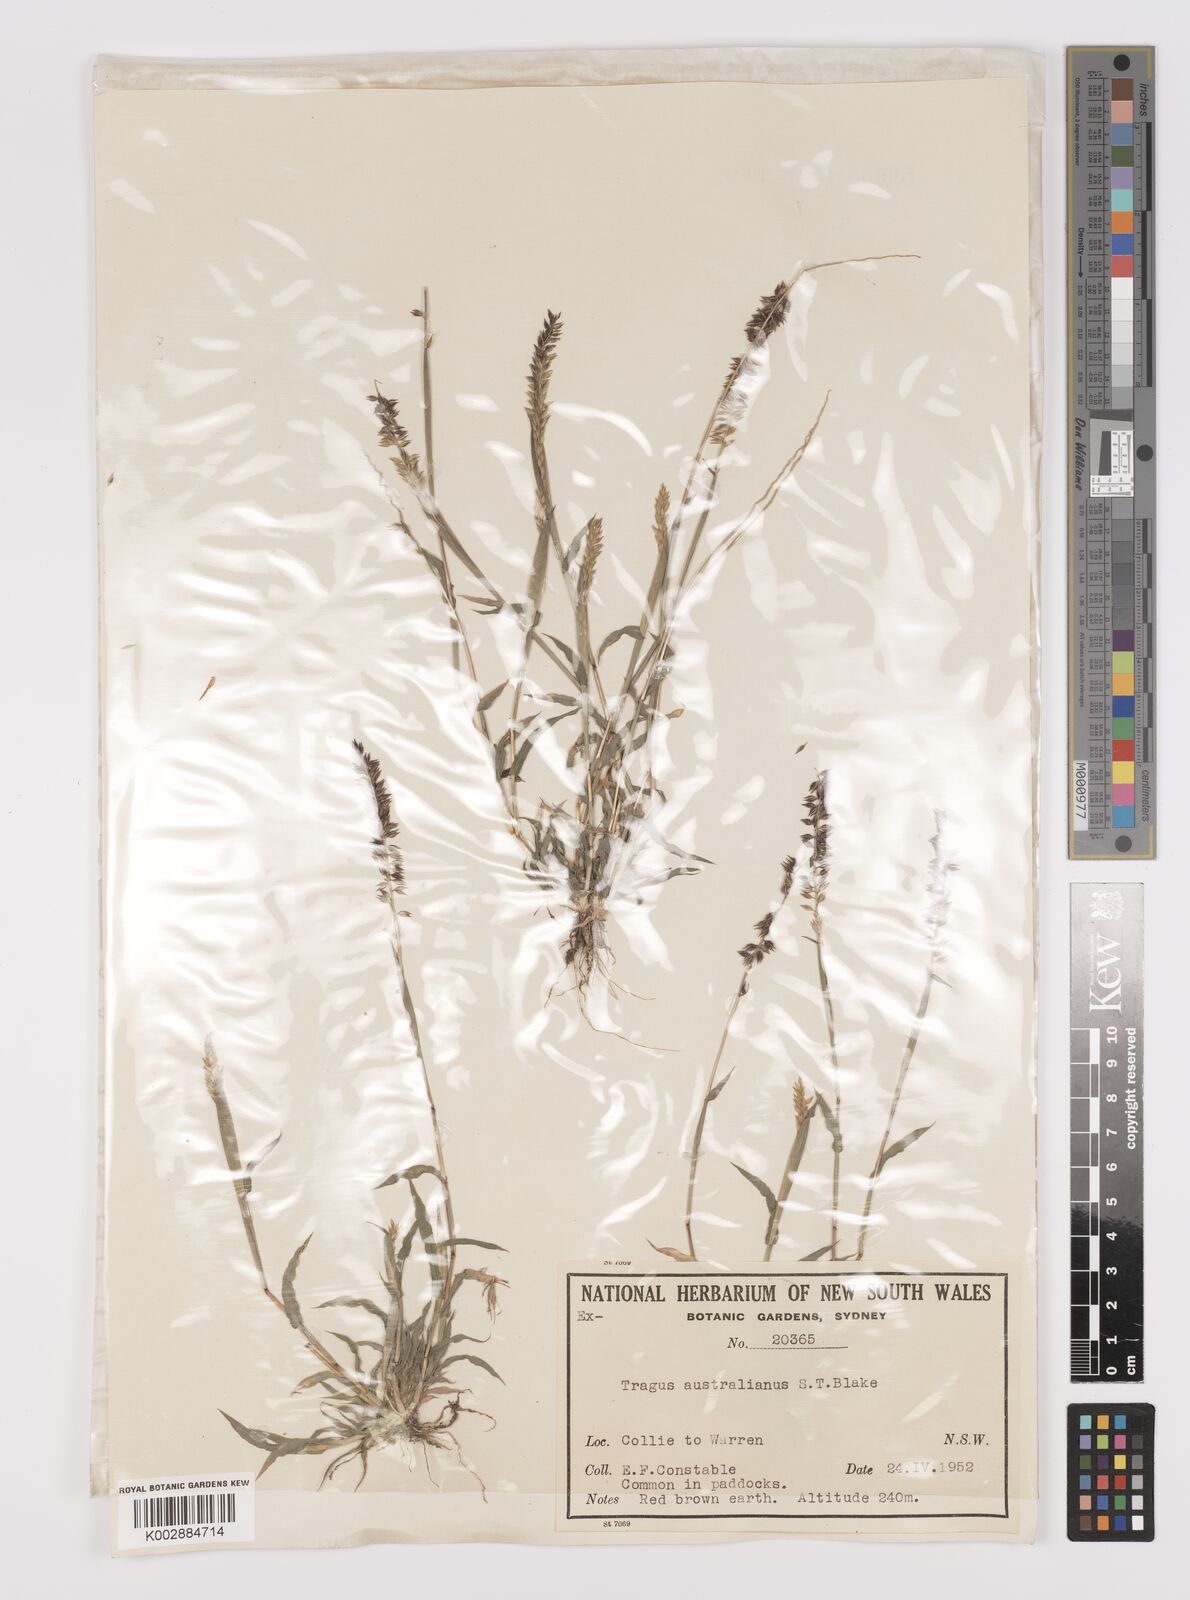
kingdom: Plantae
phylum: Tracheophyta
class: Liliopsida
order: Poales
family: Poaceae
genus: Tragus
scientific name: Tragus australianus
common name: Australian bur-grass
